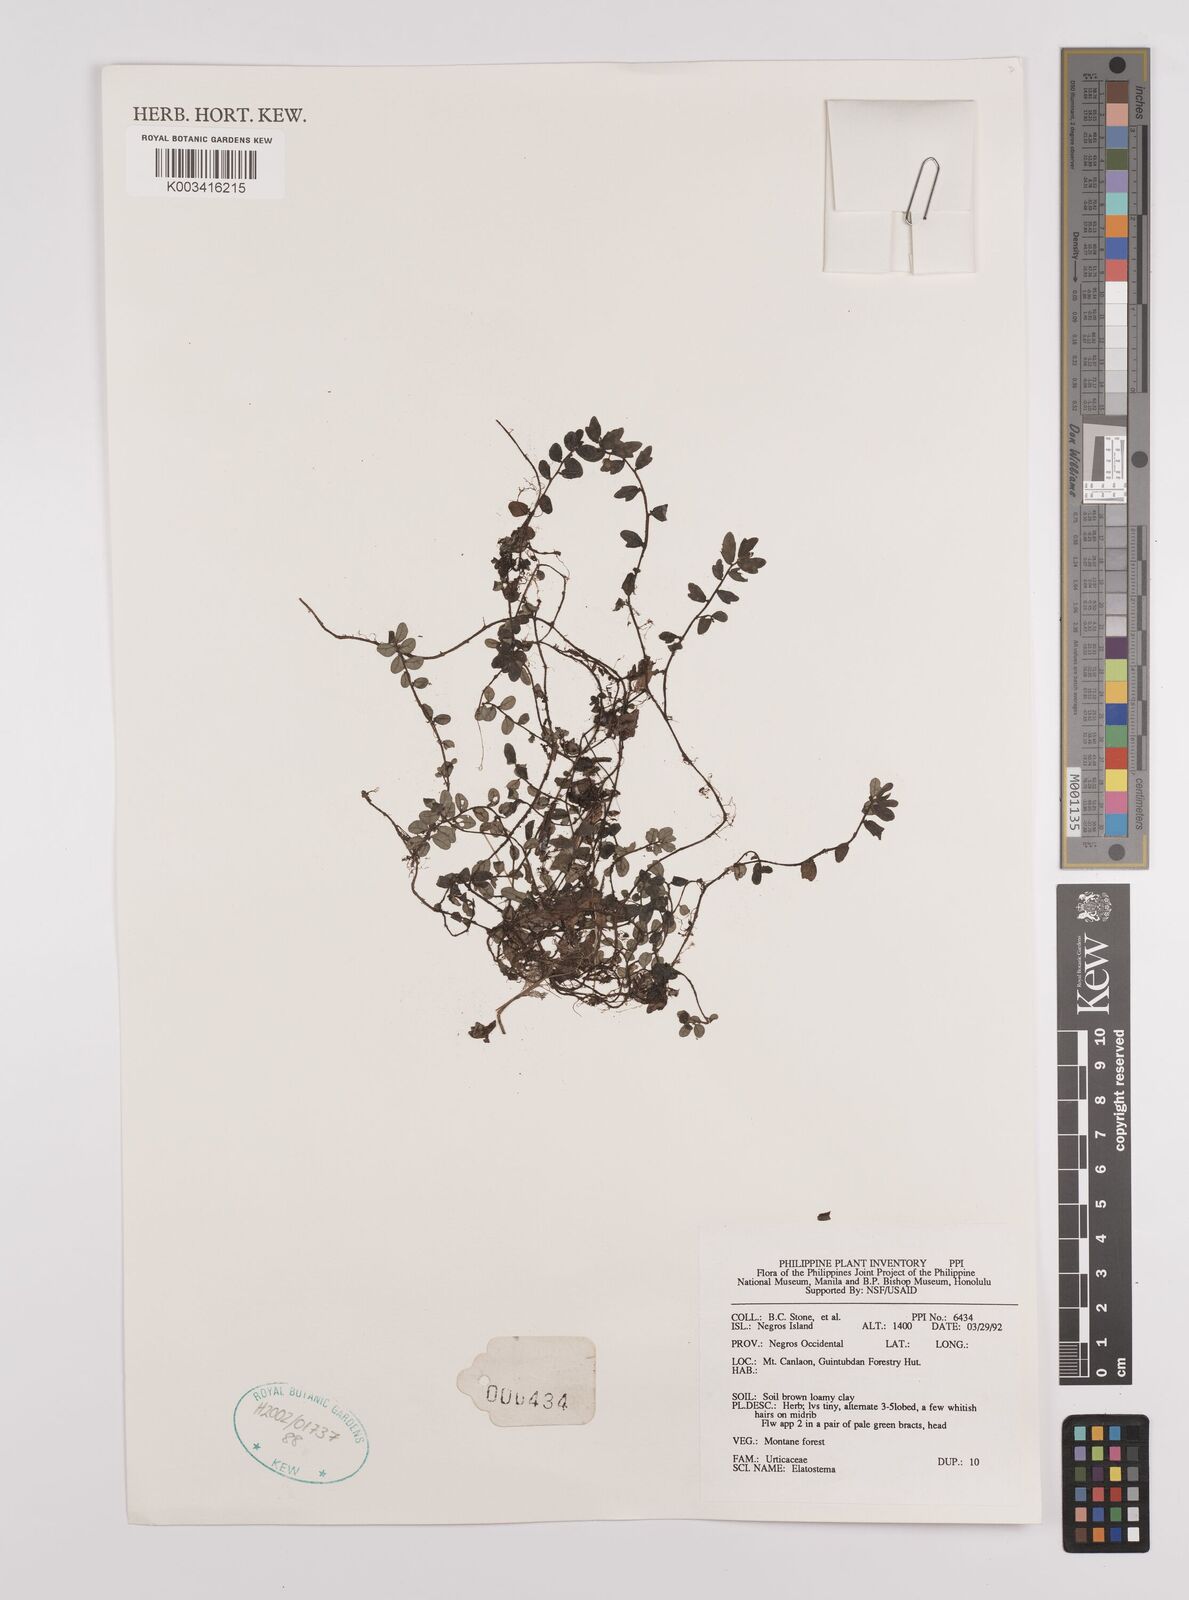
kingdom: Plantae
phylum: Tracheophyta
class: Magnoliopsida
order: Rosales
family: Urticaceae
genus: Elatostema
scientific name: Elatostema
